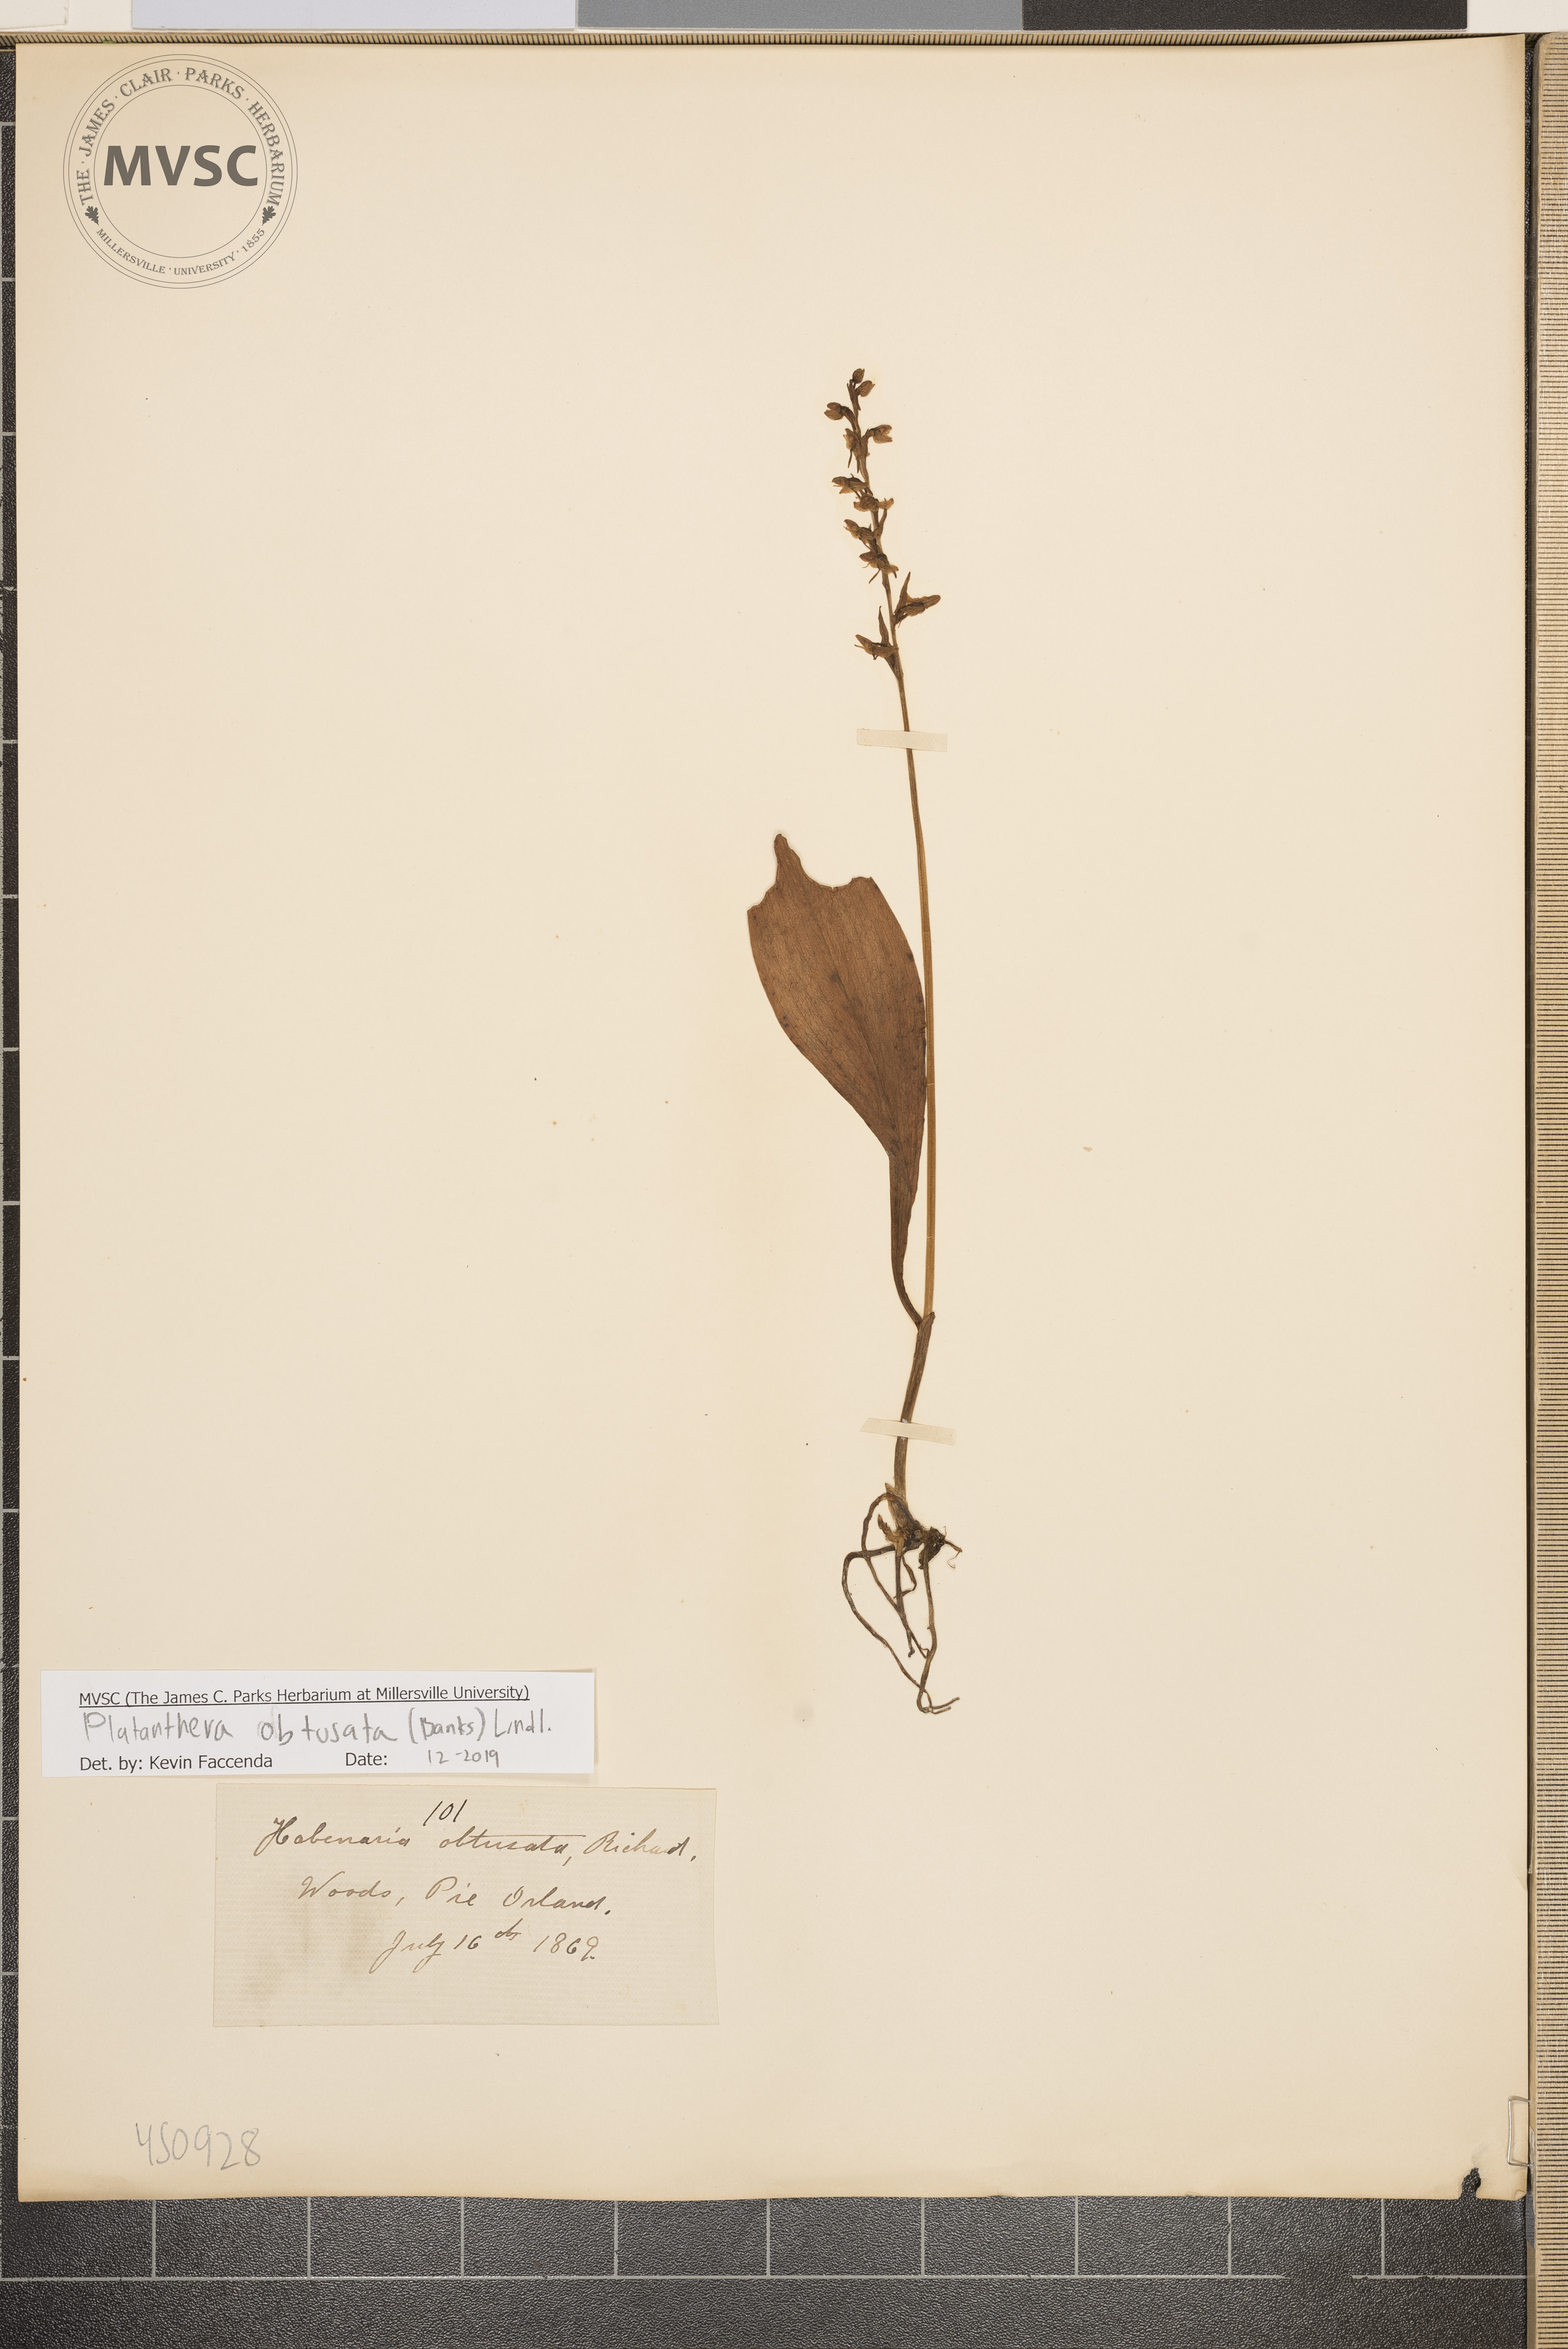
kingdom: Plantae
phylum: Tracheophyta
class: Liliopsida
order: Asparagales
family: Orchidaceae
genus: Platanthera
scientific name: Platanthera obtusata
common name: Blunt bog orchid
